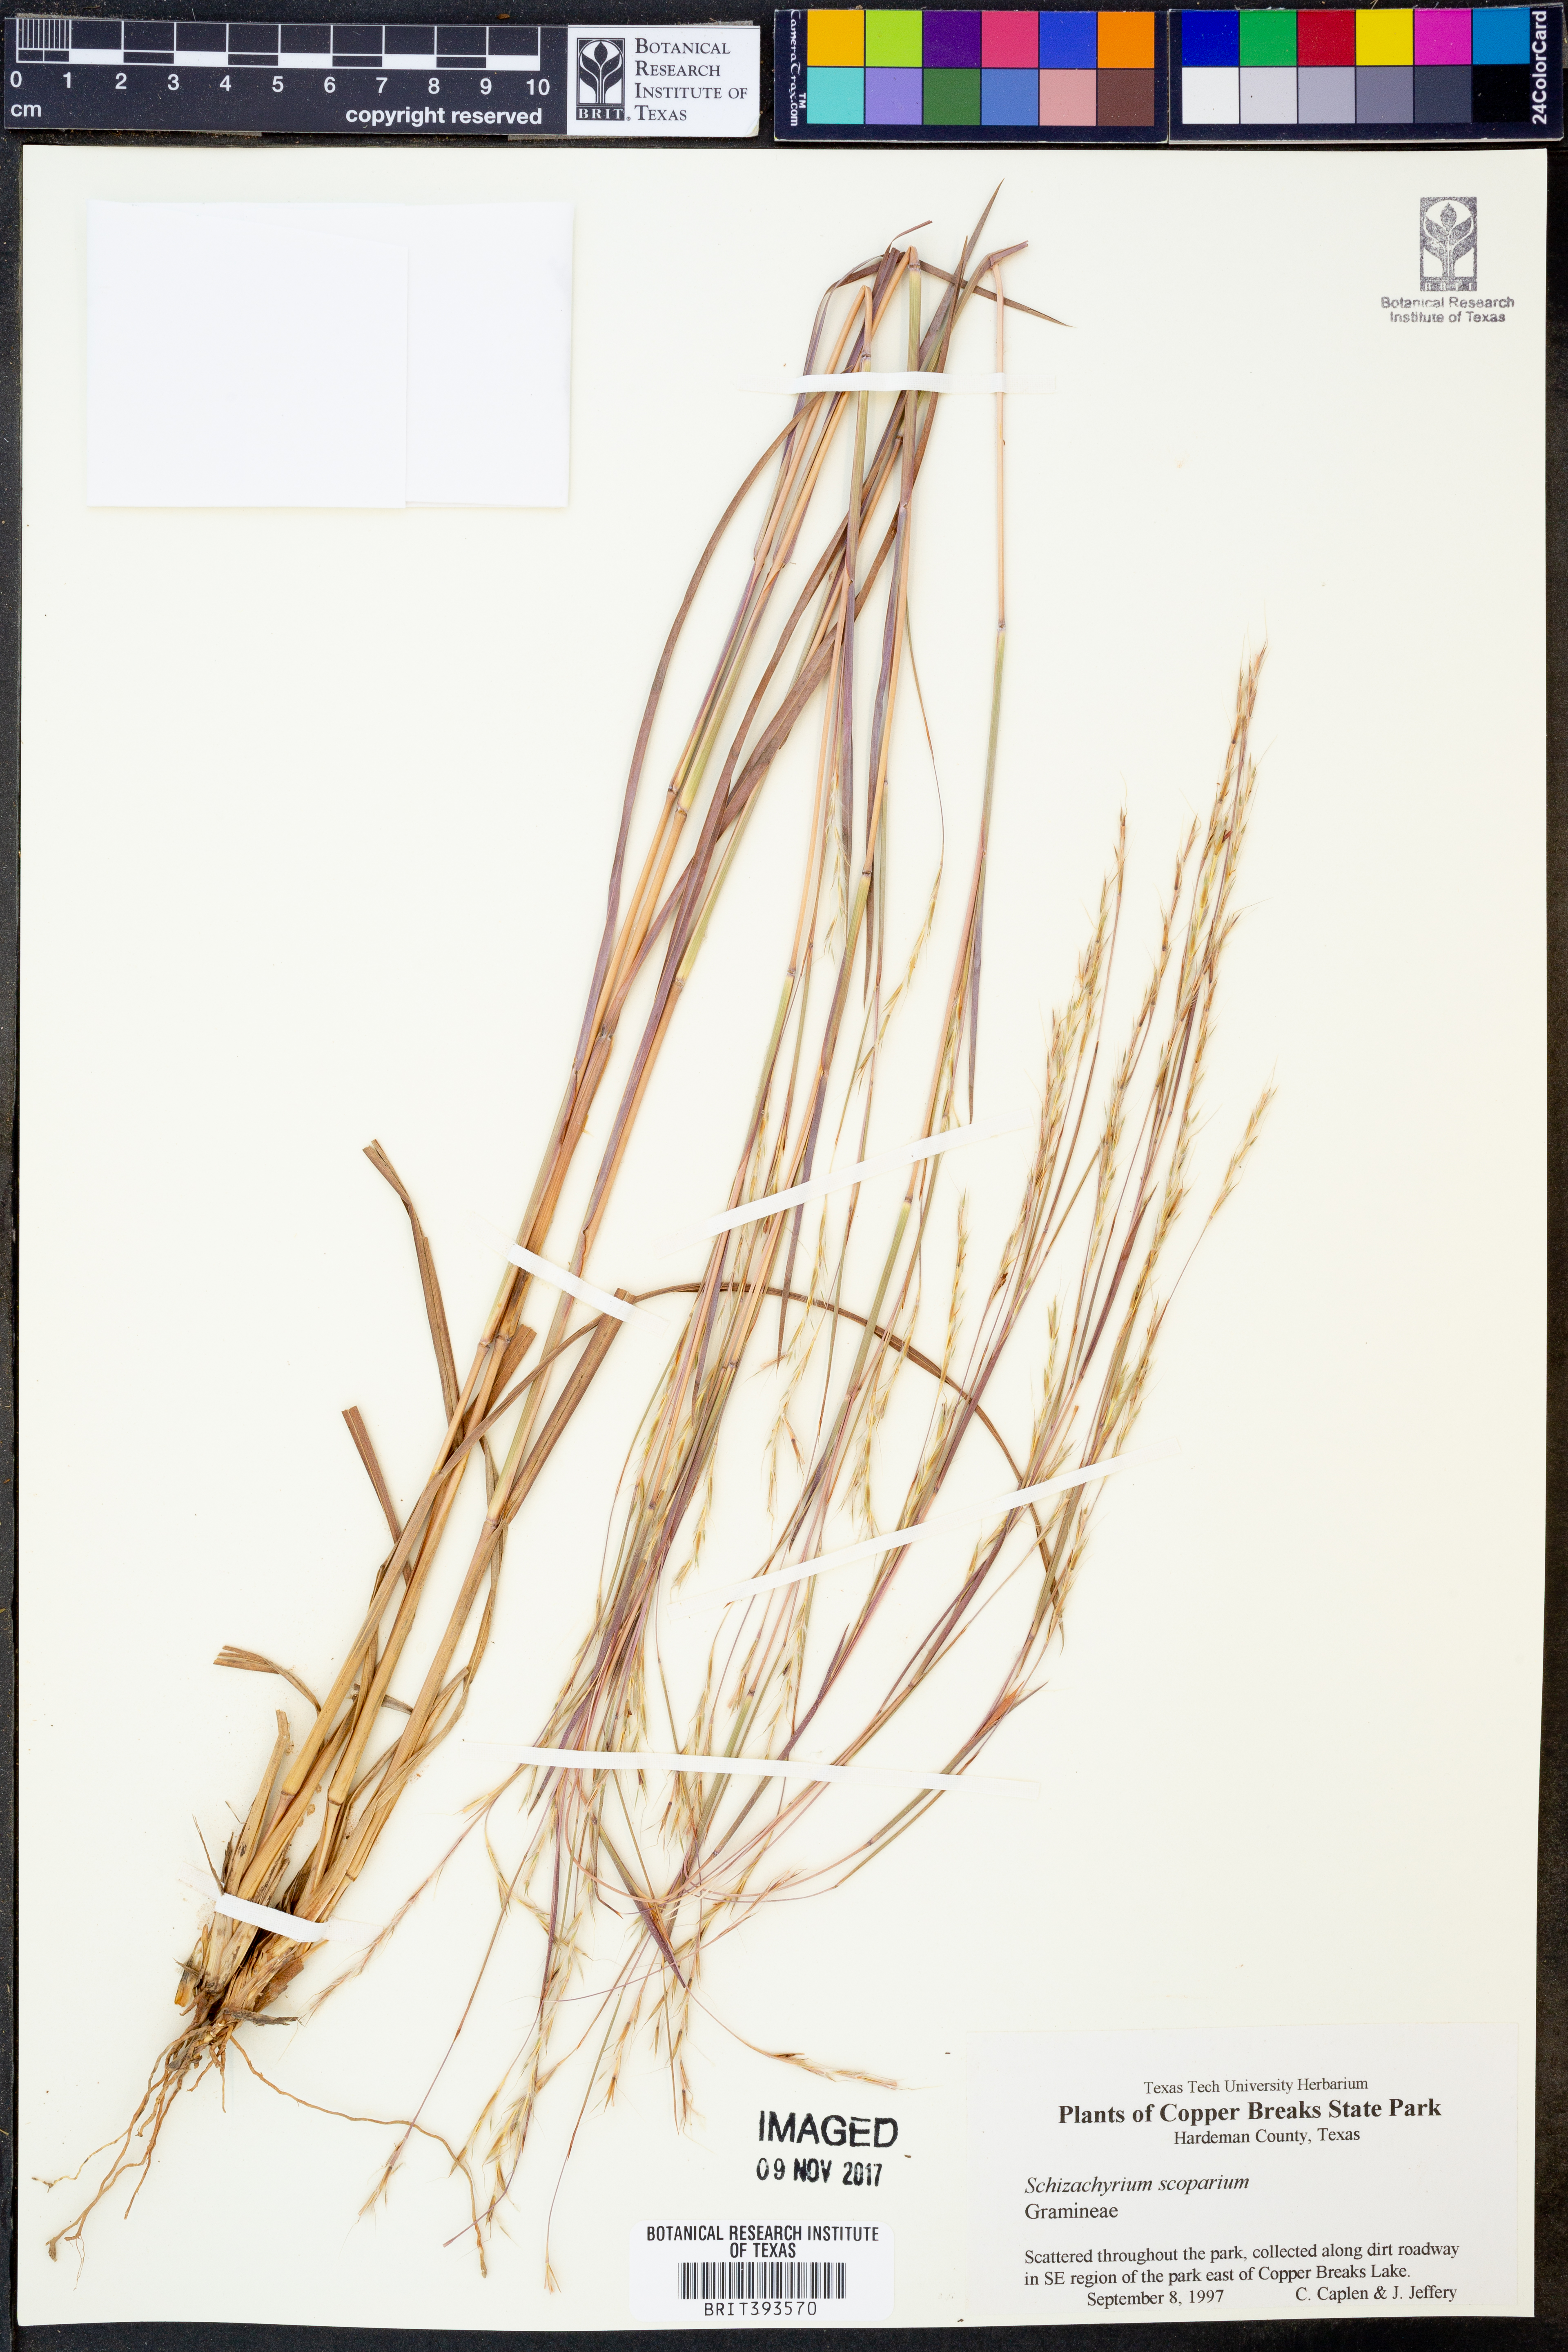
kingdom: Plantae
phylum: Tracheophyta
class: Liliopsida
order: Poales
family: Poaceae
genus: Schizachyrium
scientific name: Schizachyrium scoparium
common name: Little bluestem
